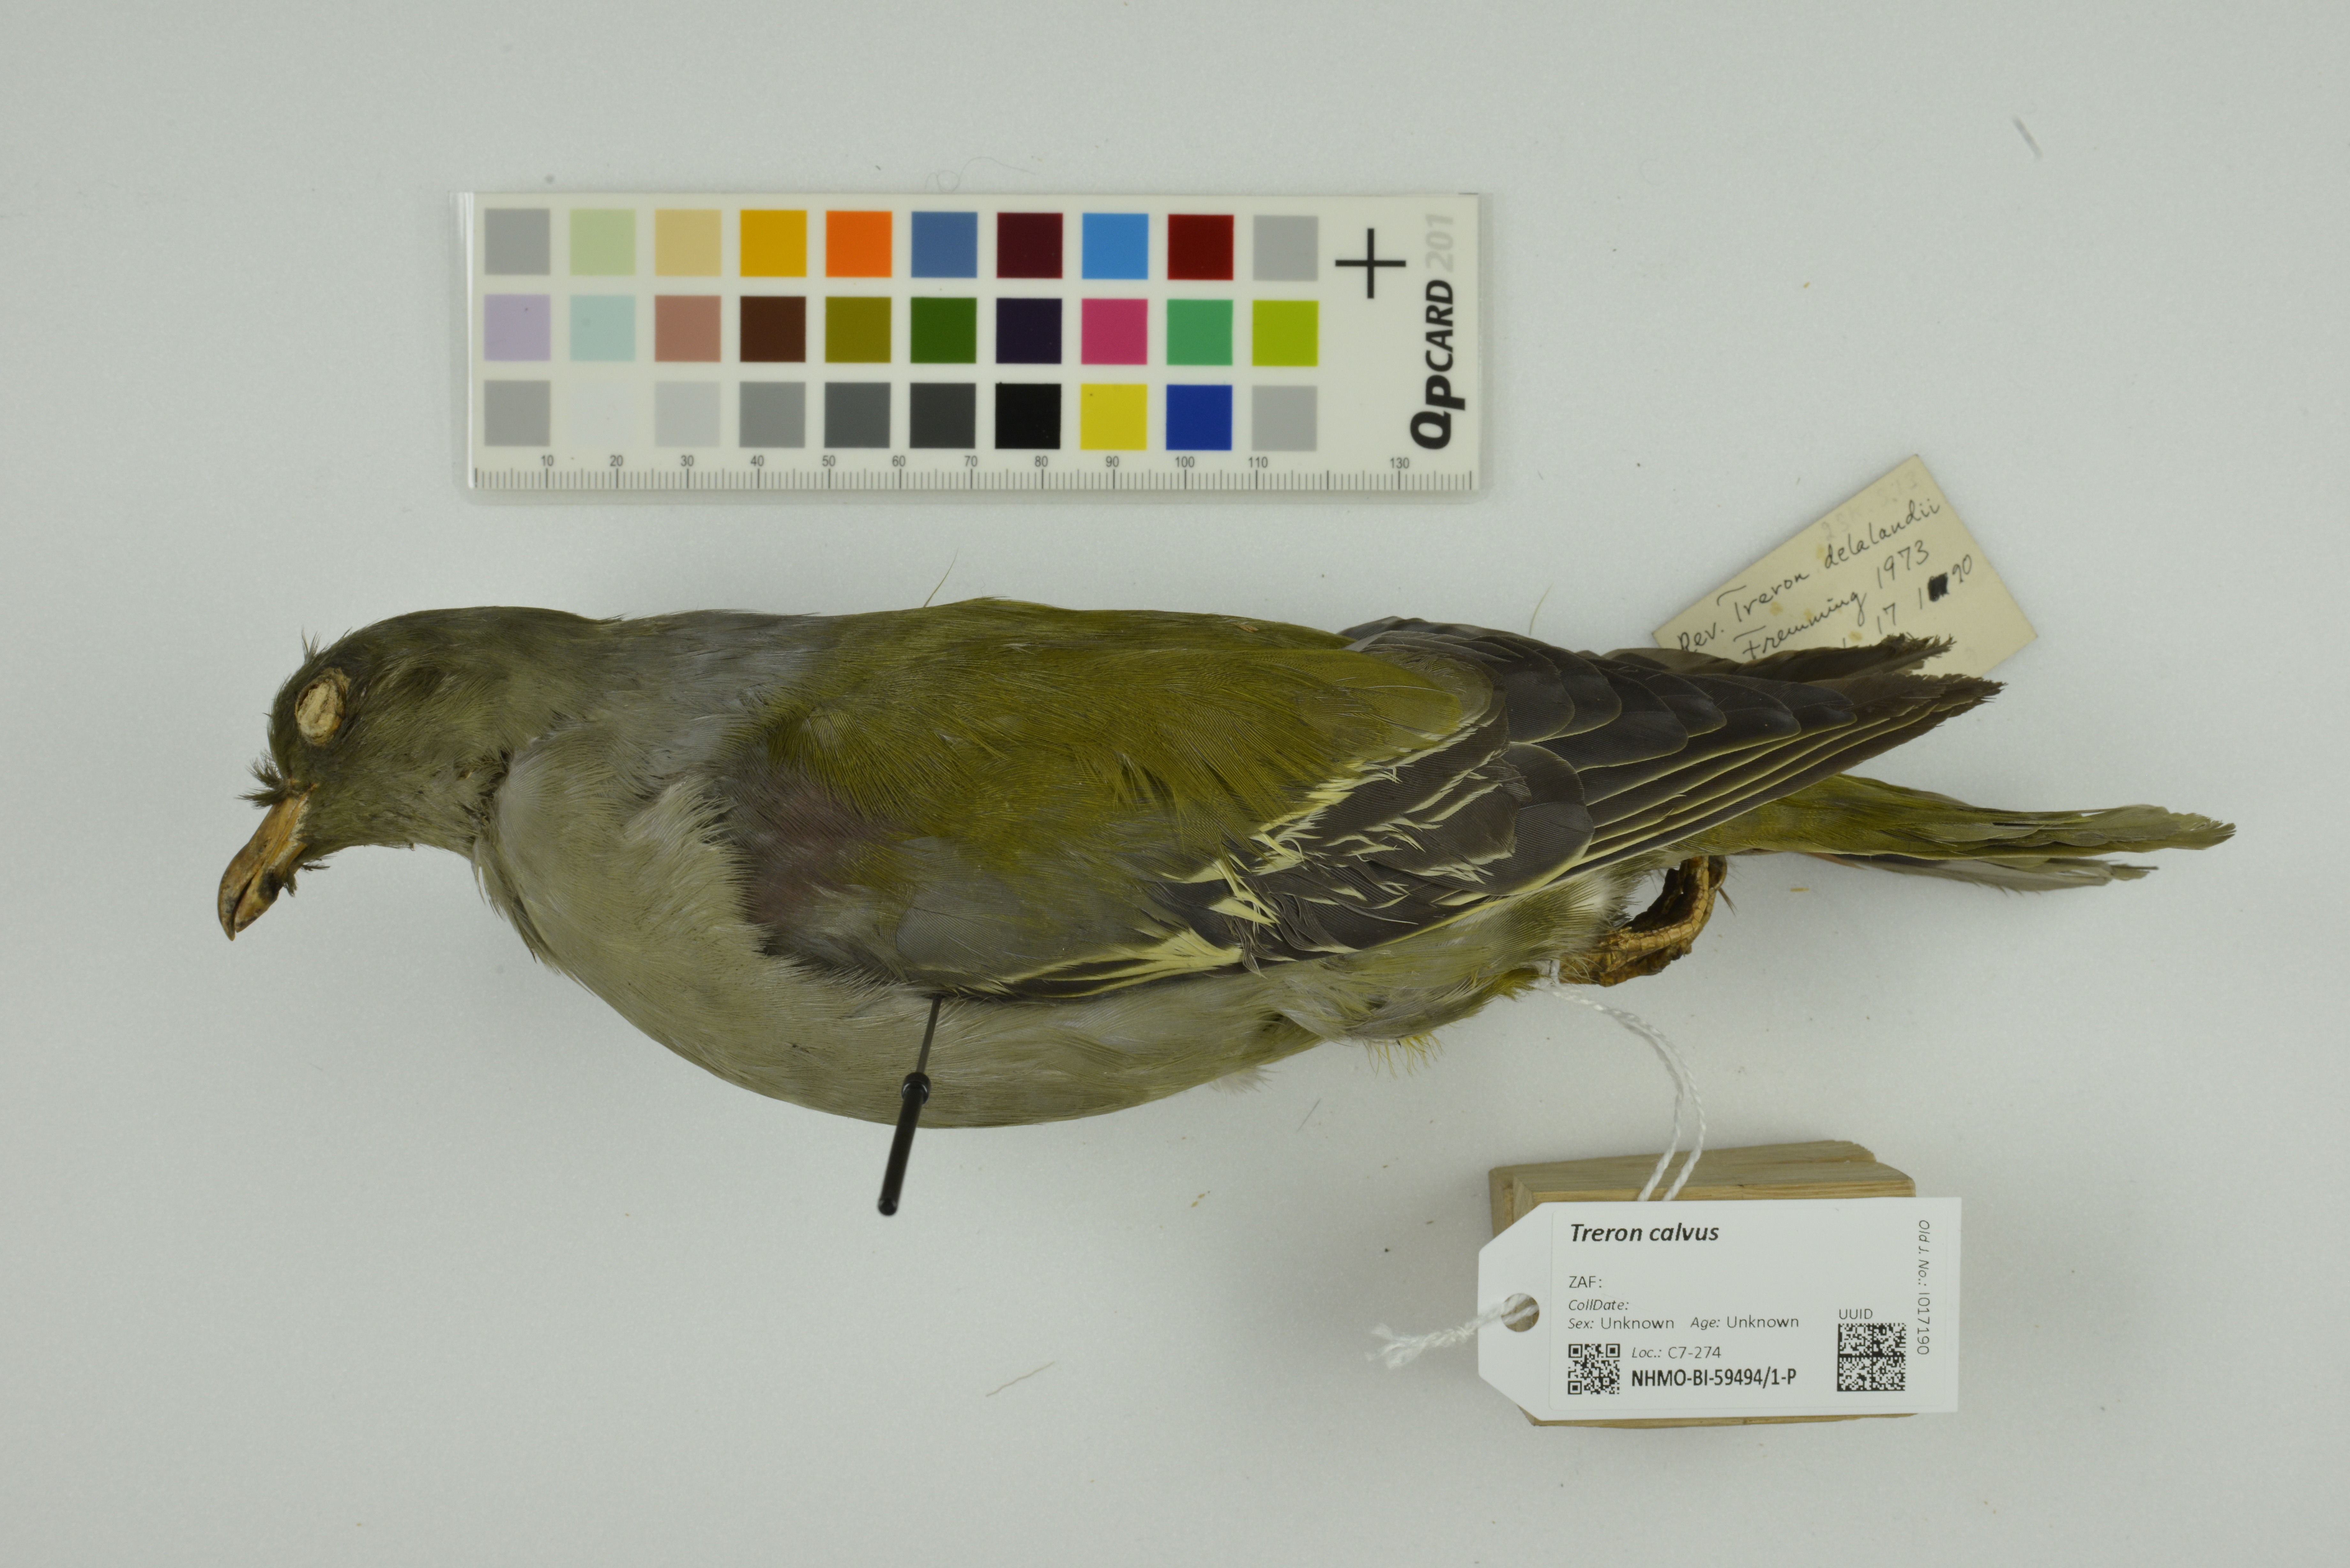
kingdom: Animalia
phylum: Chordata
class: Aves
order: Columbiformes
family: Columbidae
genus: Treron
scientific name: Treron calvus
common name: African green pigeon
